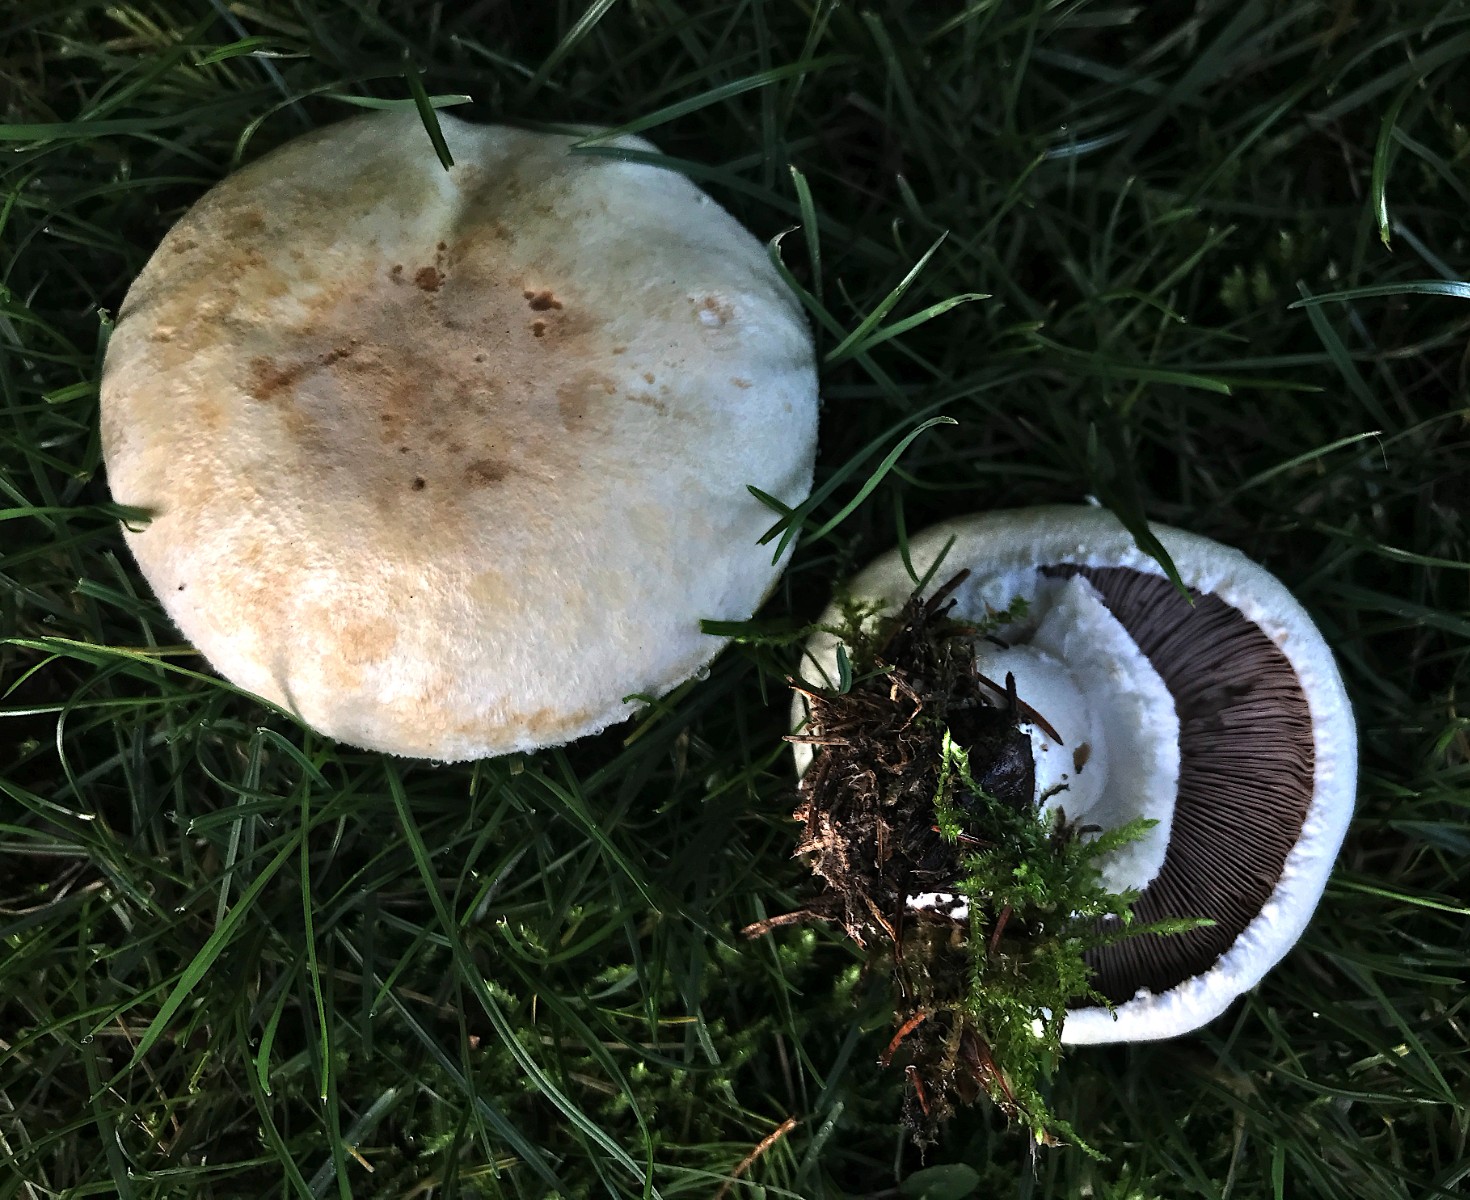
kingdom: Fungi
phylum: Basidiomycota
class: Agaricomycetes
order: Agaricales
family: Agaricaceae
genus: Agaricus
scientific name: Agaricus arvensis
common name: ager-champignon
